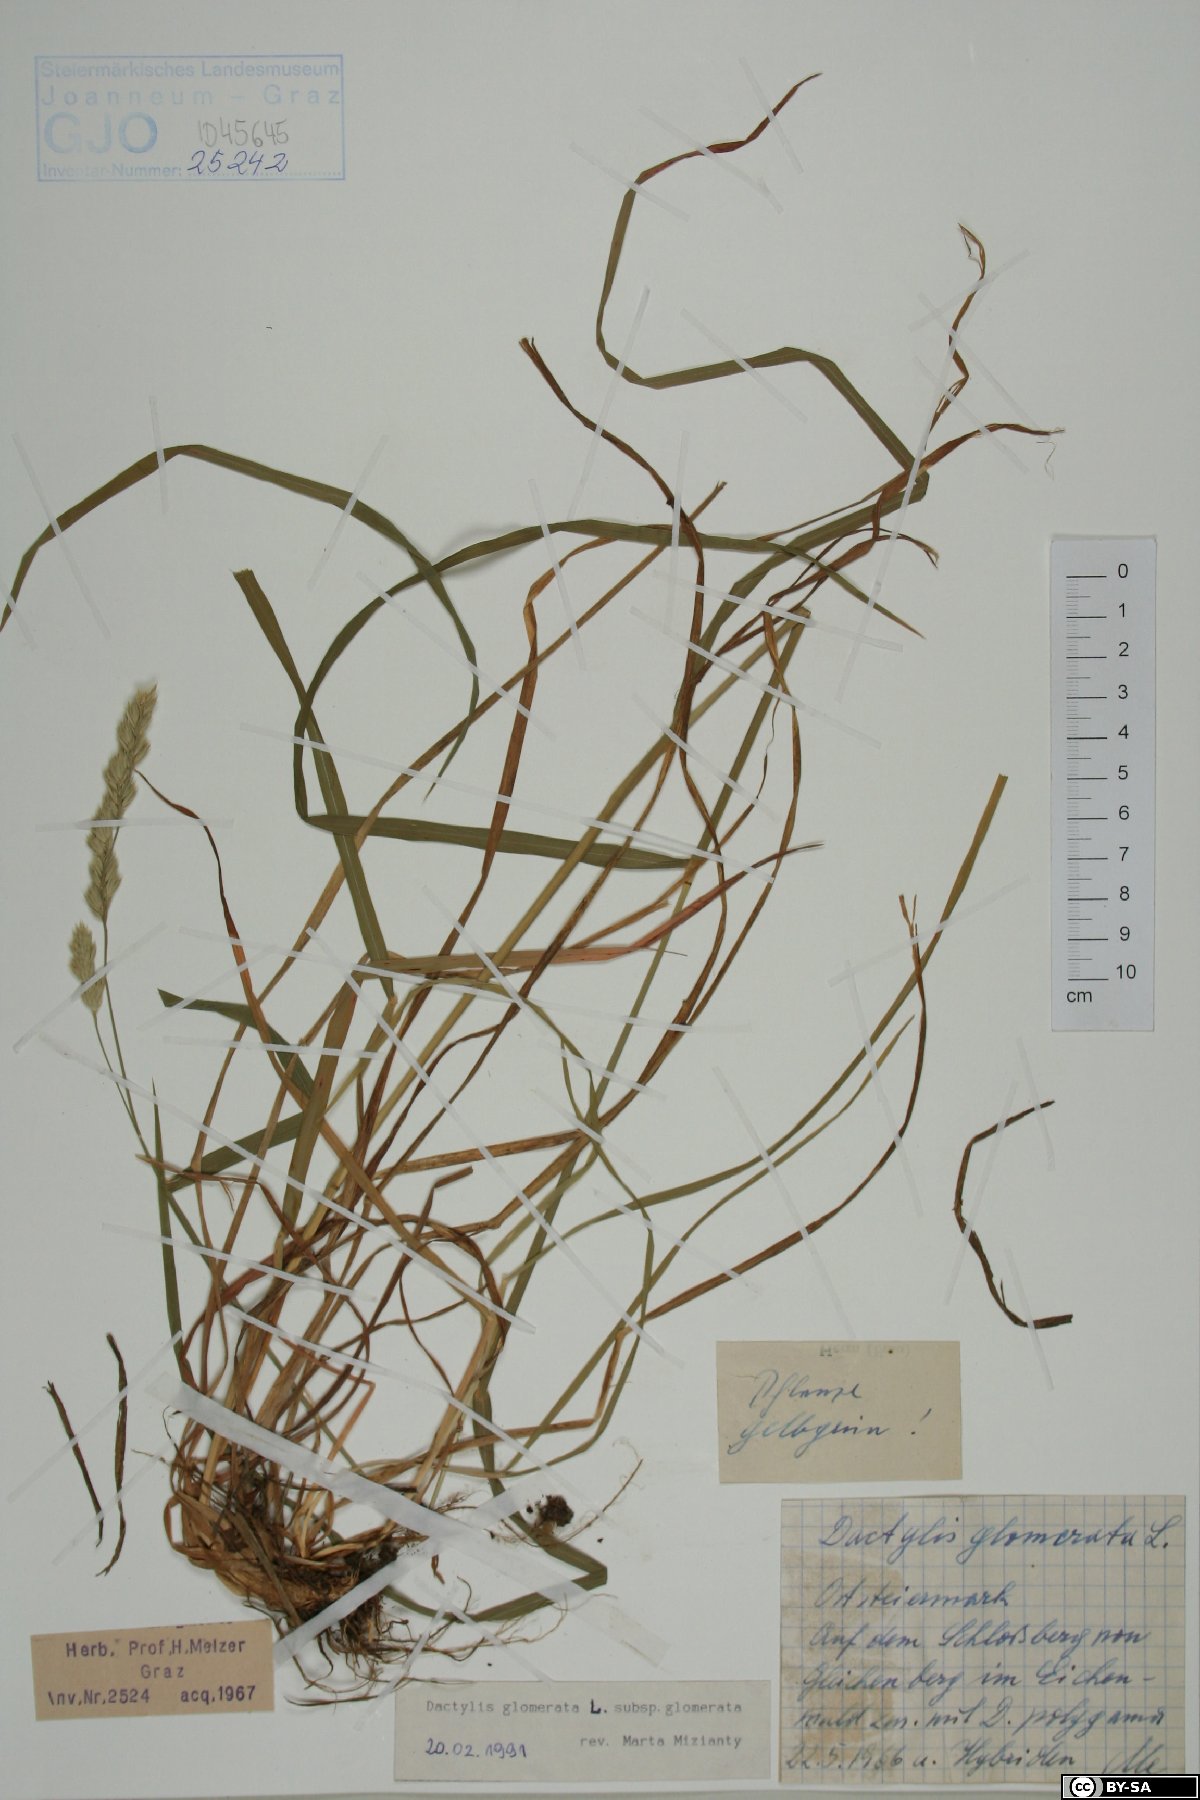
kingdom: Plantae
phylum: Tracheophyta
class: Liliopsida
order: Poales
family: Poaceae
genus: Dactylis
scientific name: Dactylis glomerata
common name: Orchardgrass
